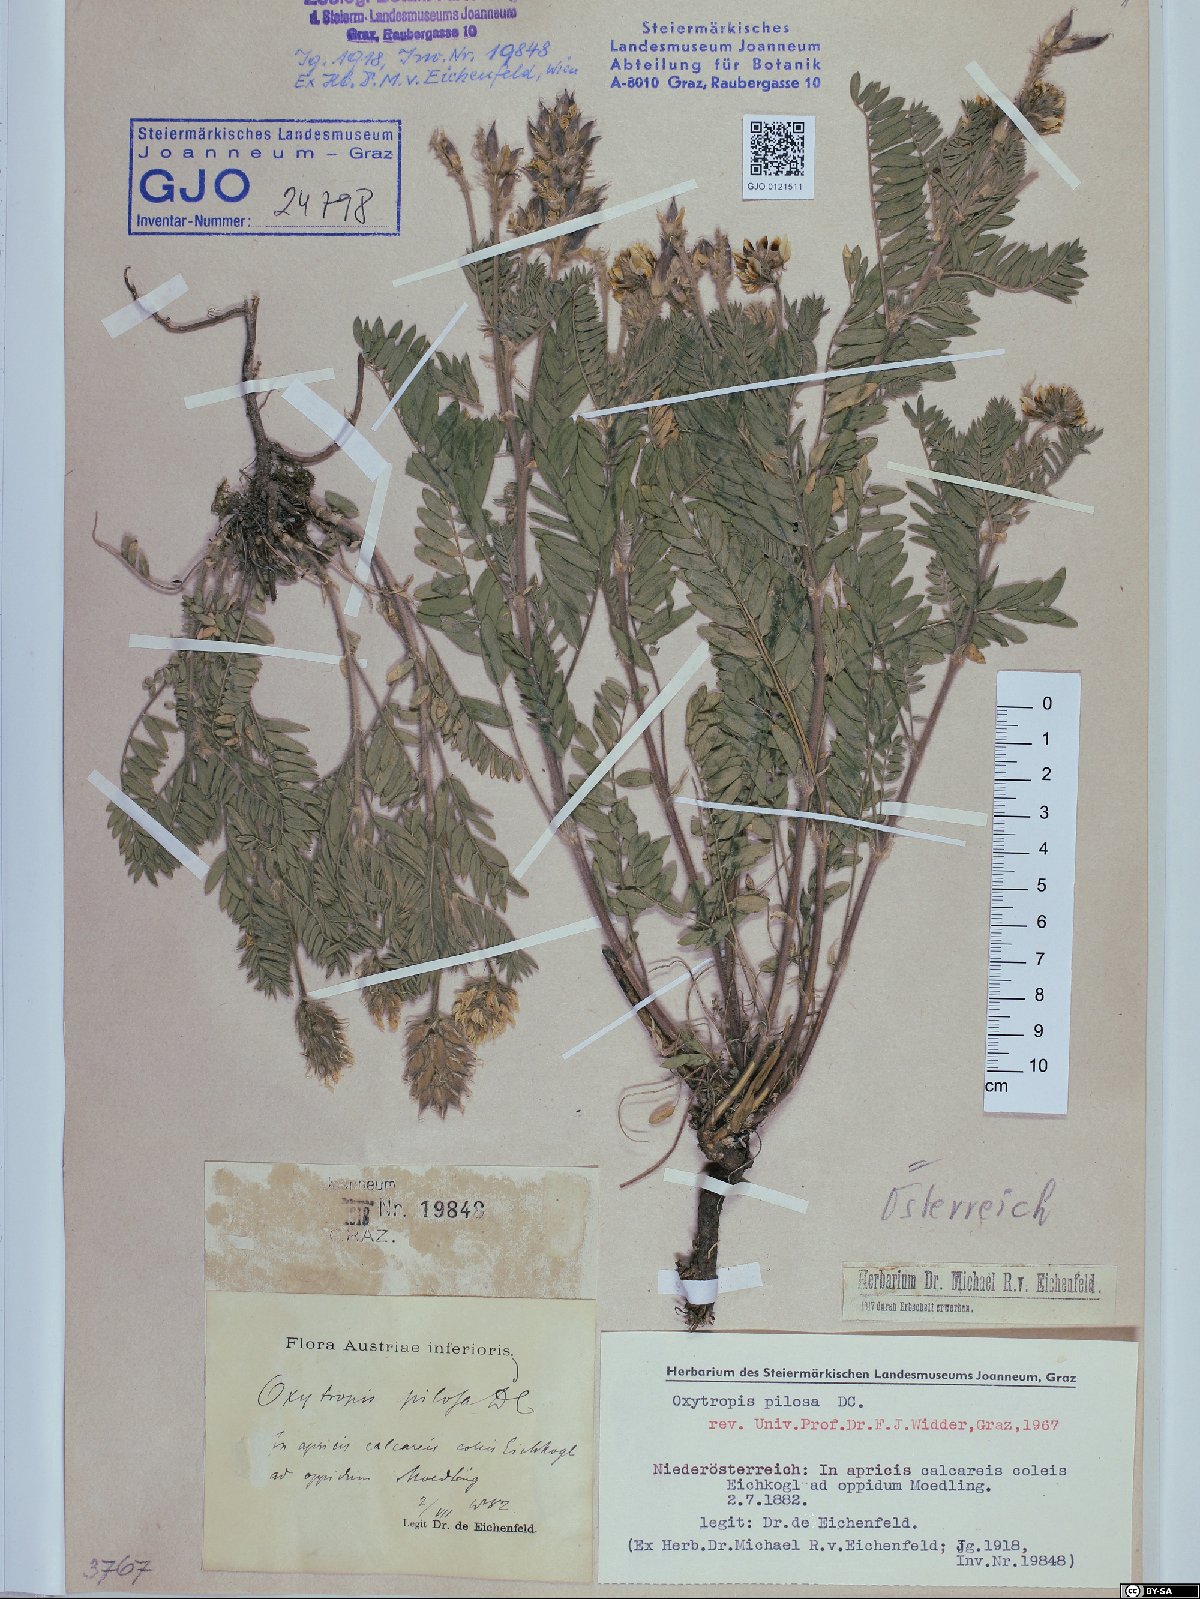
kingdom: Plantae
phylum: Tracheophyta
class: Magnoliopsida
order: Fabales
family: Fabaceae
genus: Oxytropis
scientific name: Oxytropis pilosa
